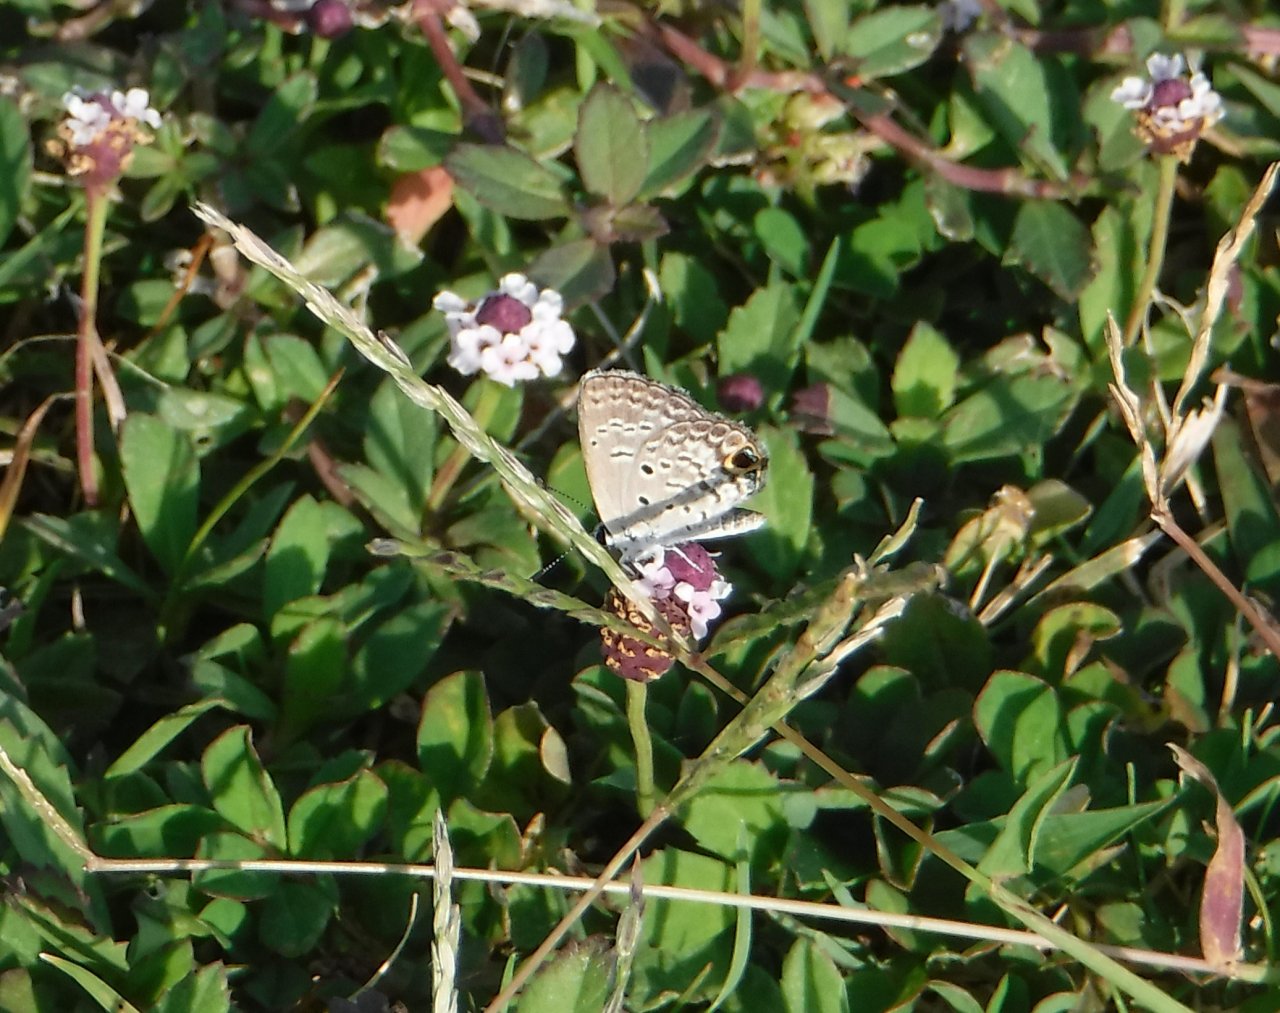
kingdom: Animalia
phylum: Arthropoda
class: Insecta
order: Lepidoptera
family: Lycaenidae
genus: Hemiargus
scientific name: Hemiargus ceraunus
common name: Ceraunus Blue
